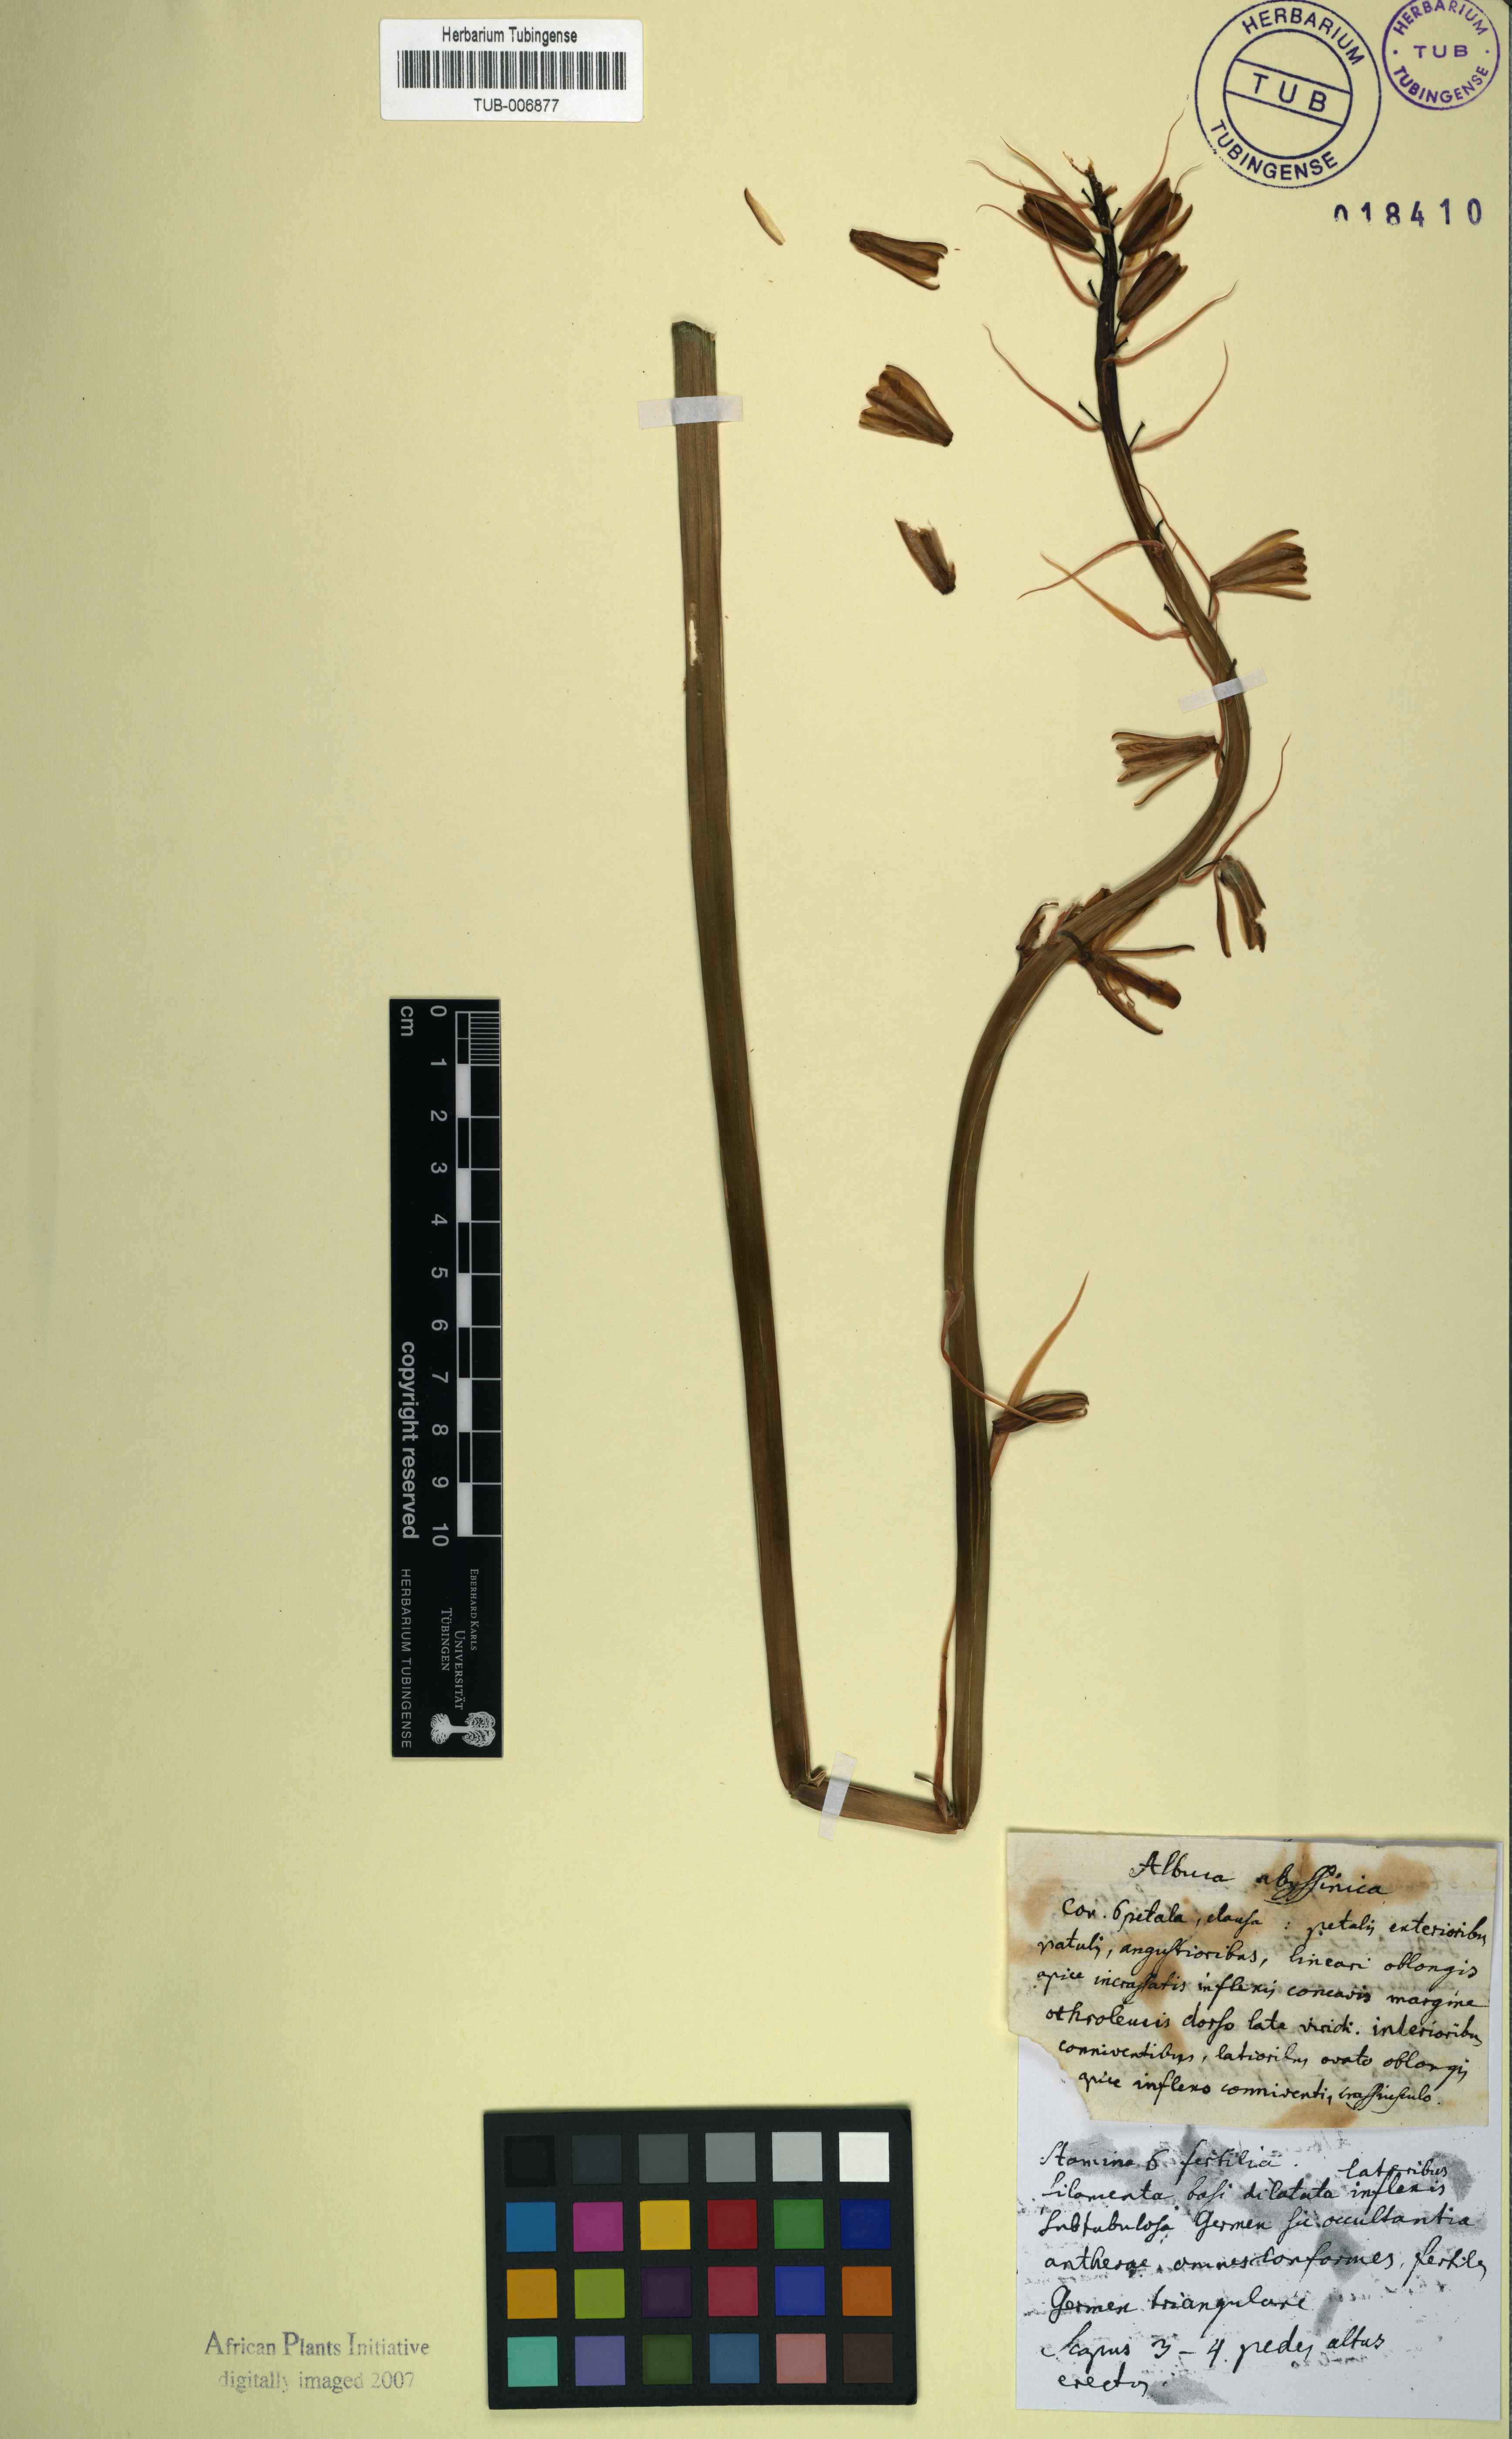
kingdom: Plantae
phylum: Tracheophyta
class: Liliopsida
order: Asparagales
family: Asparagaceae
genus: Albuca
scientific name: Albuca abyssinica
